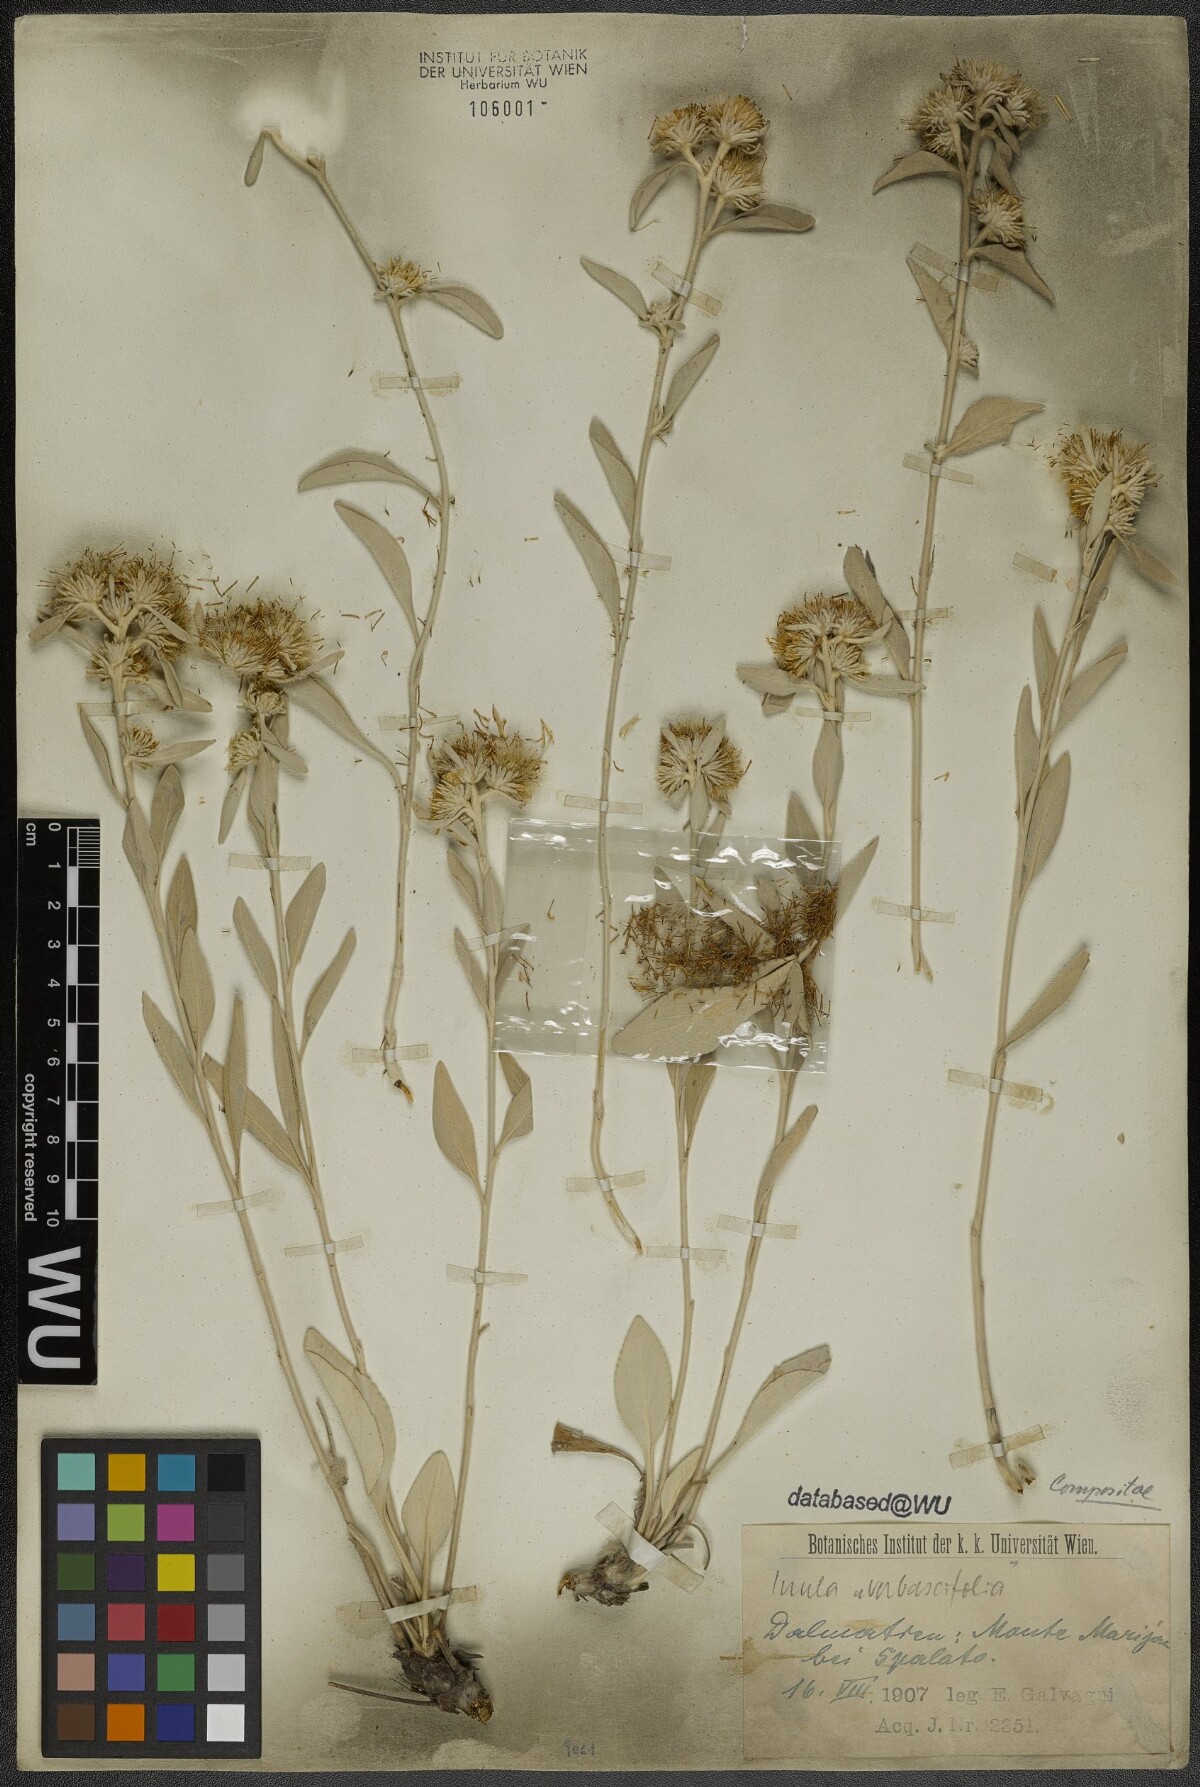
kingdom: Plantae
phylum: Tracheophyta
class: Magnoliopsida
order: Asterales
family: Asteraceae
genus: Pentanema
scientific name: Pentanema verbascifolium
